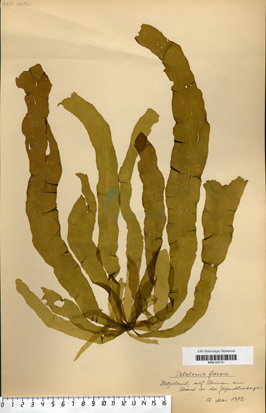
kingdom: Chromista
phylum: Ochrophyta
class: Phaeophyceae
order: Scytosiphonales
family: Scytosiphonaceae
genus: Petalonia
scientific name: Petalonia fascia
